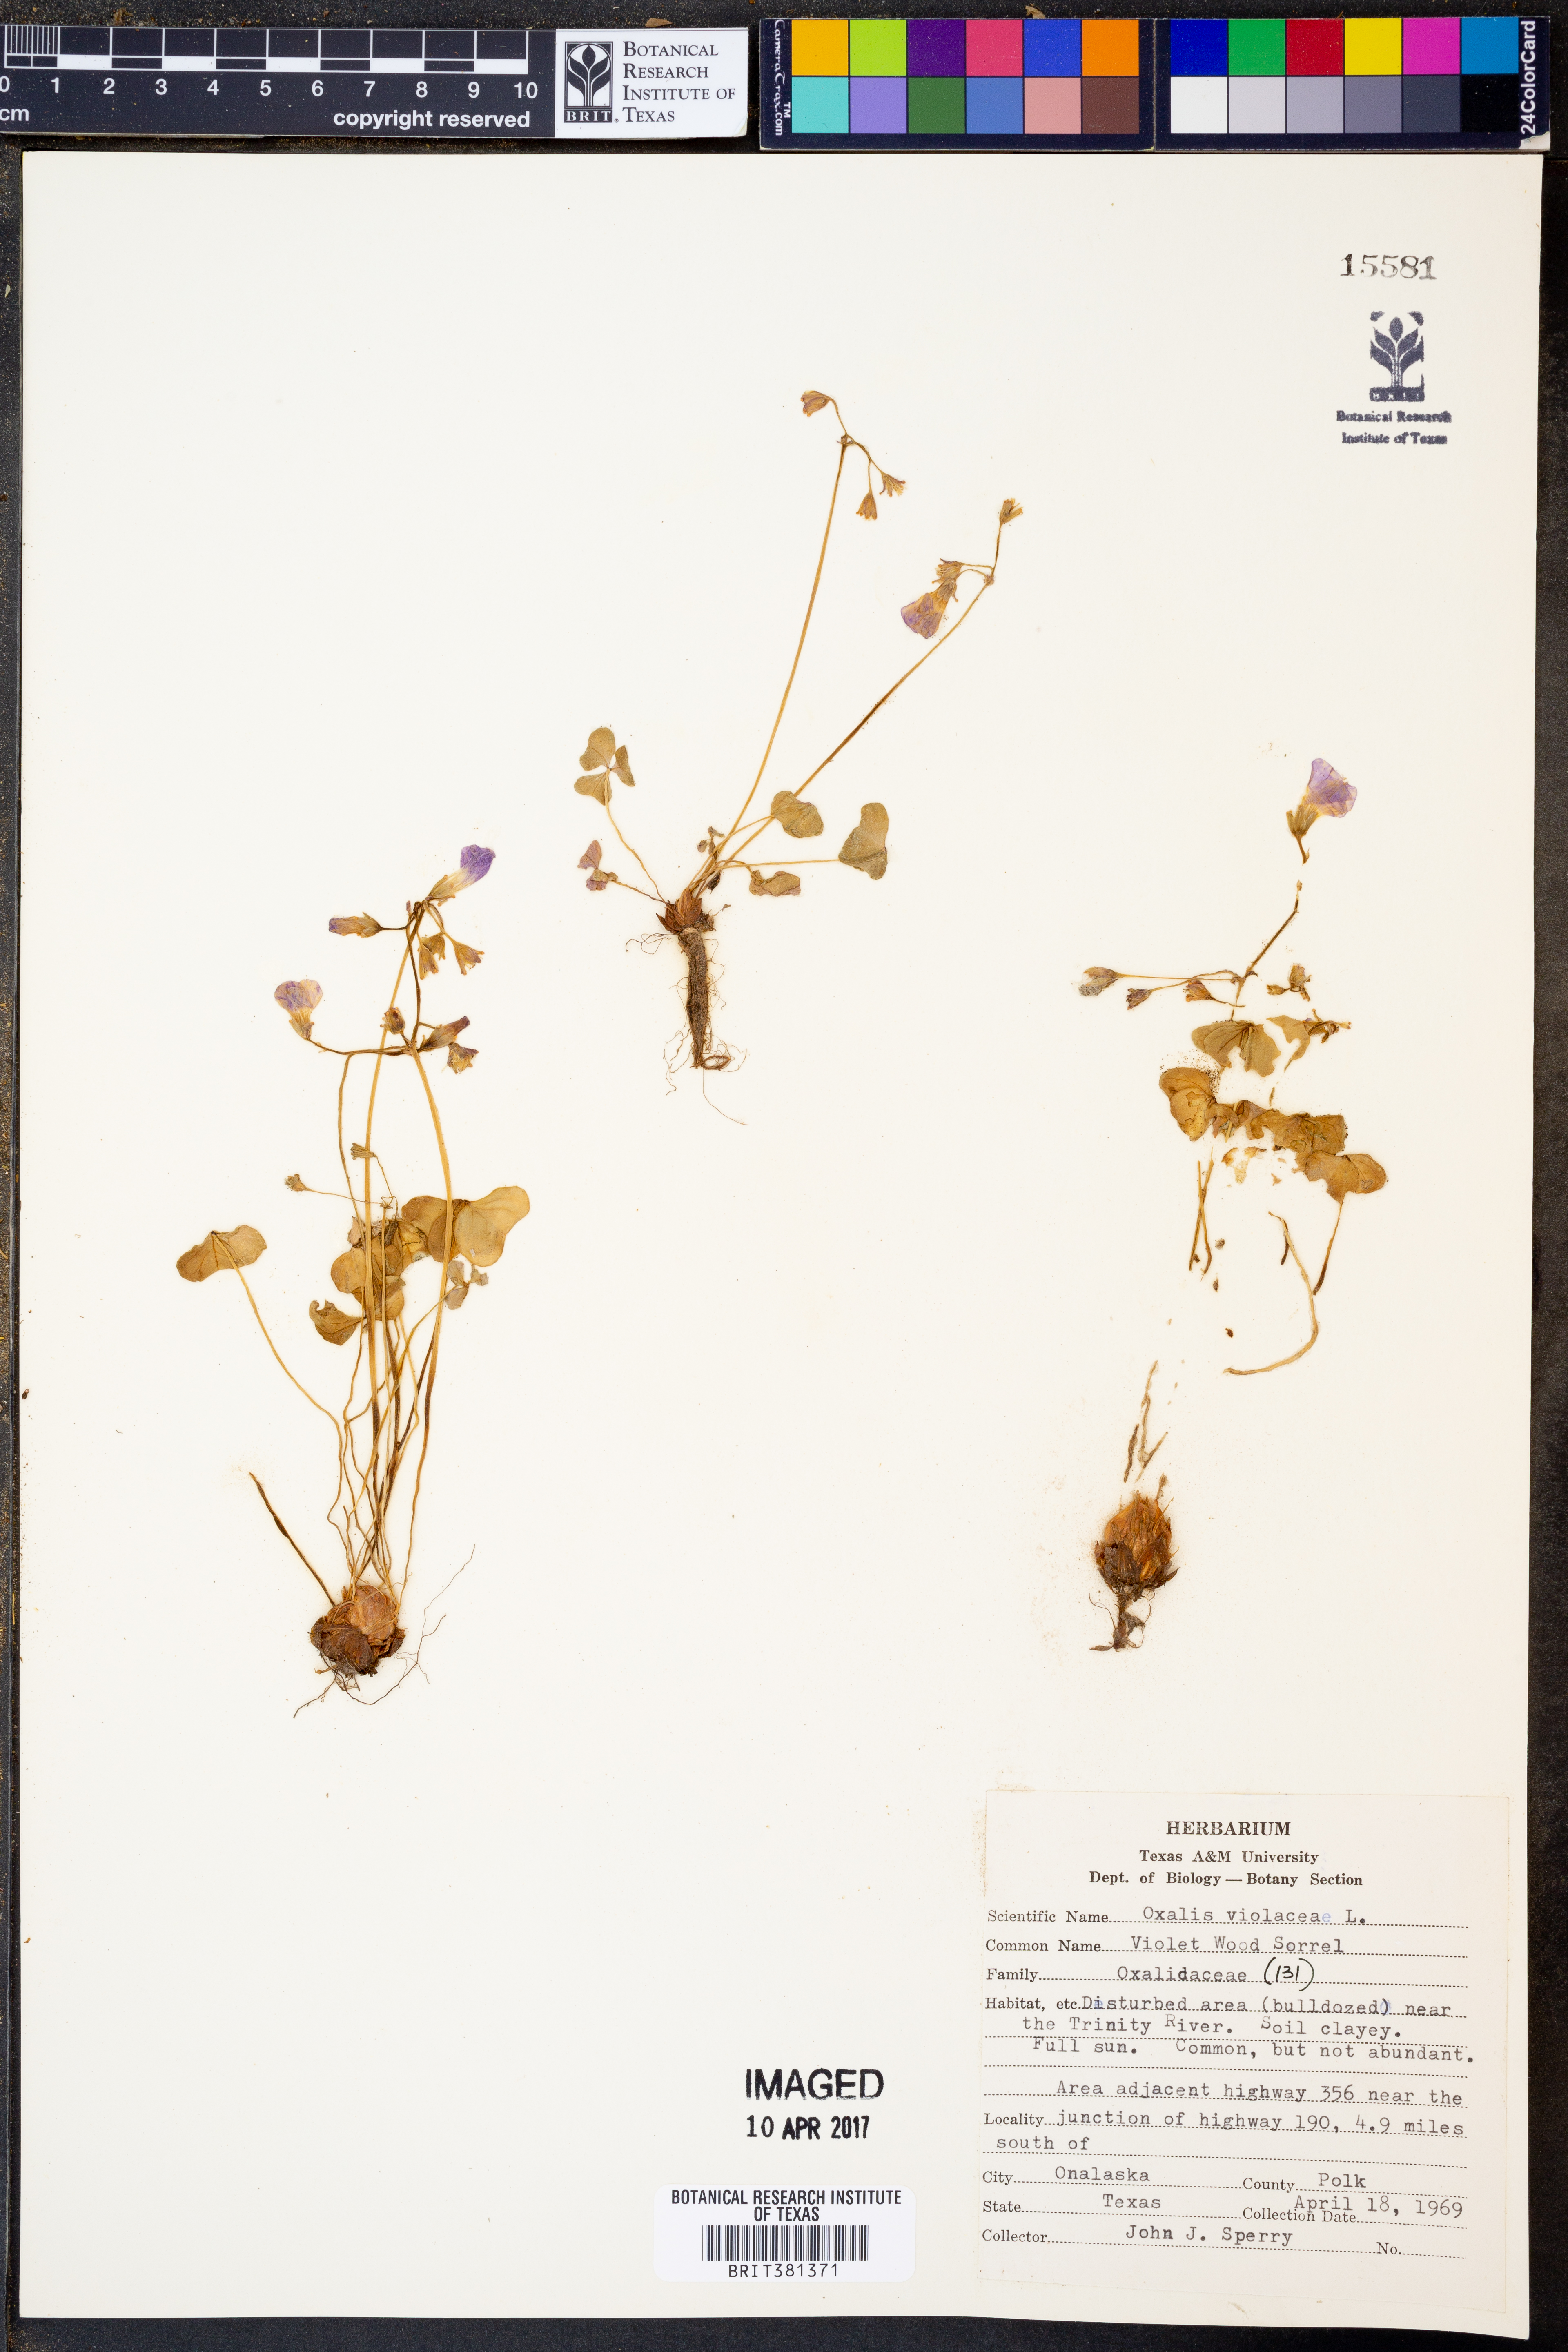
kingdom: Plantae
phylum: Tracheophyta
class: Magnoliopsida
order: Oxalidales
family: Oxalidaceae
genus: Oxalis
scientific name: Oxalis violacea
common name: Violet wood-sorrel
